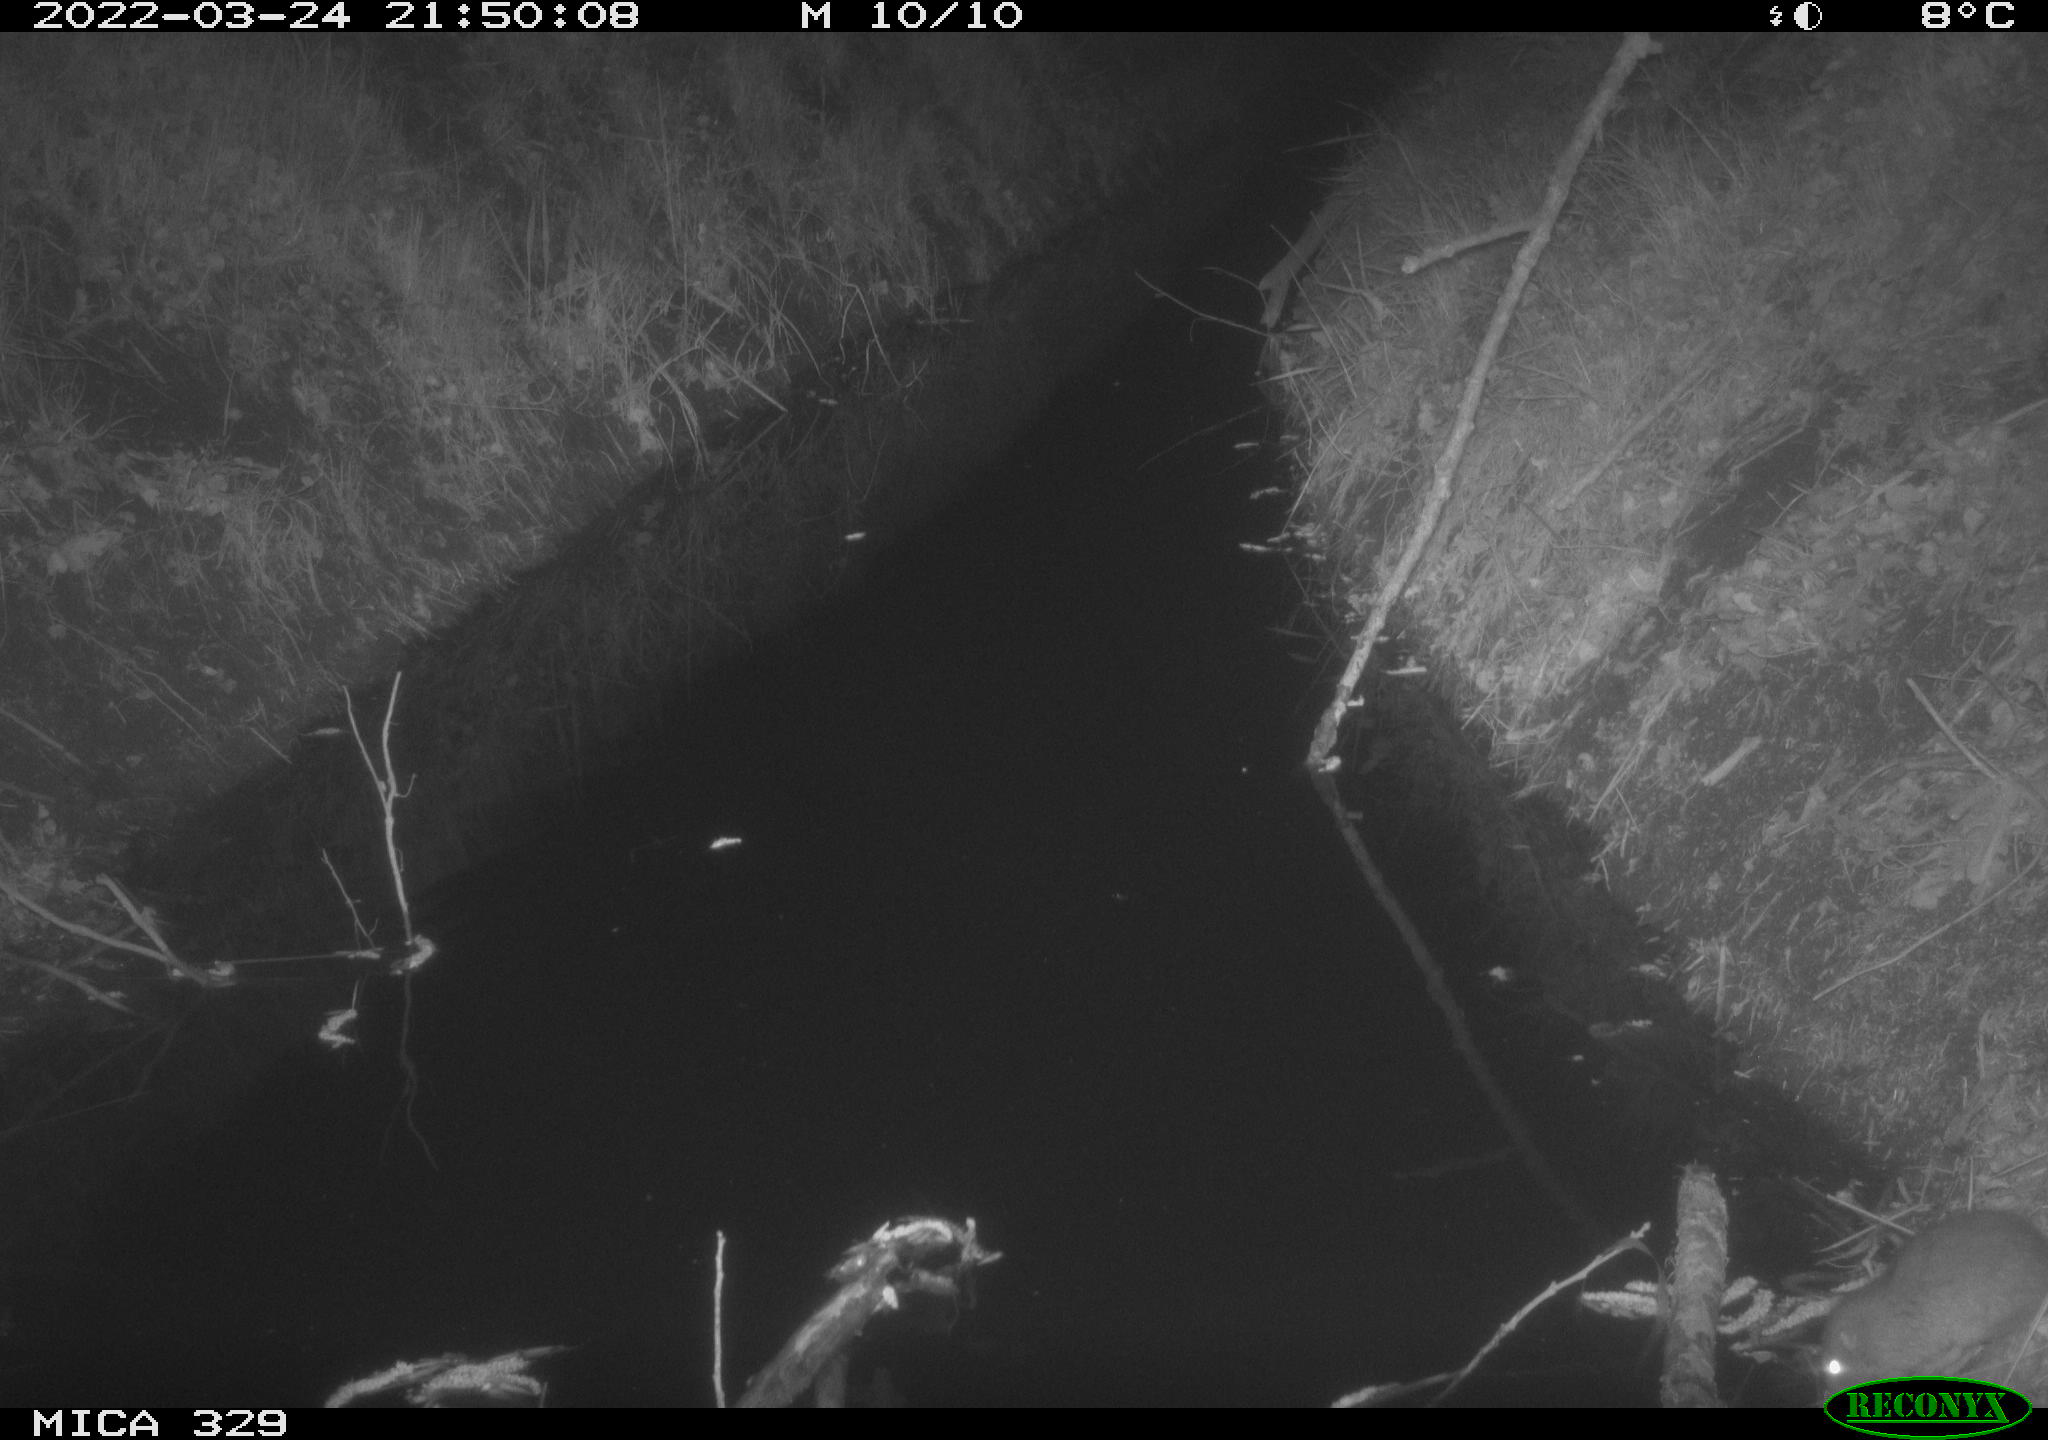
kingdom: Animalia
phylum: Chordata
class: Mammalia
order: Rodentia
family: Muridae
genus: Rattus
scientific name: Rattus norvegicus
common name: Brown rat
